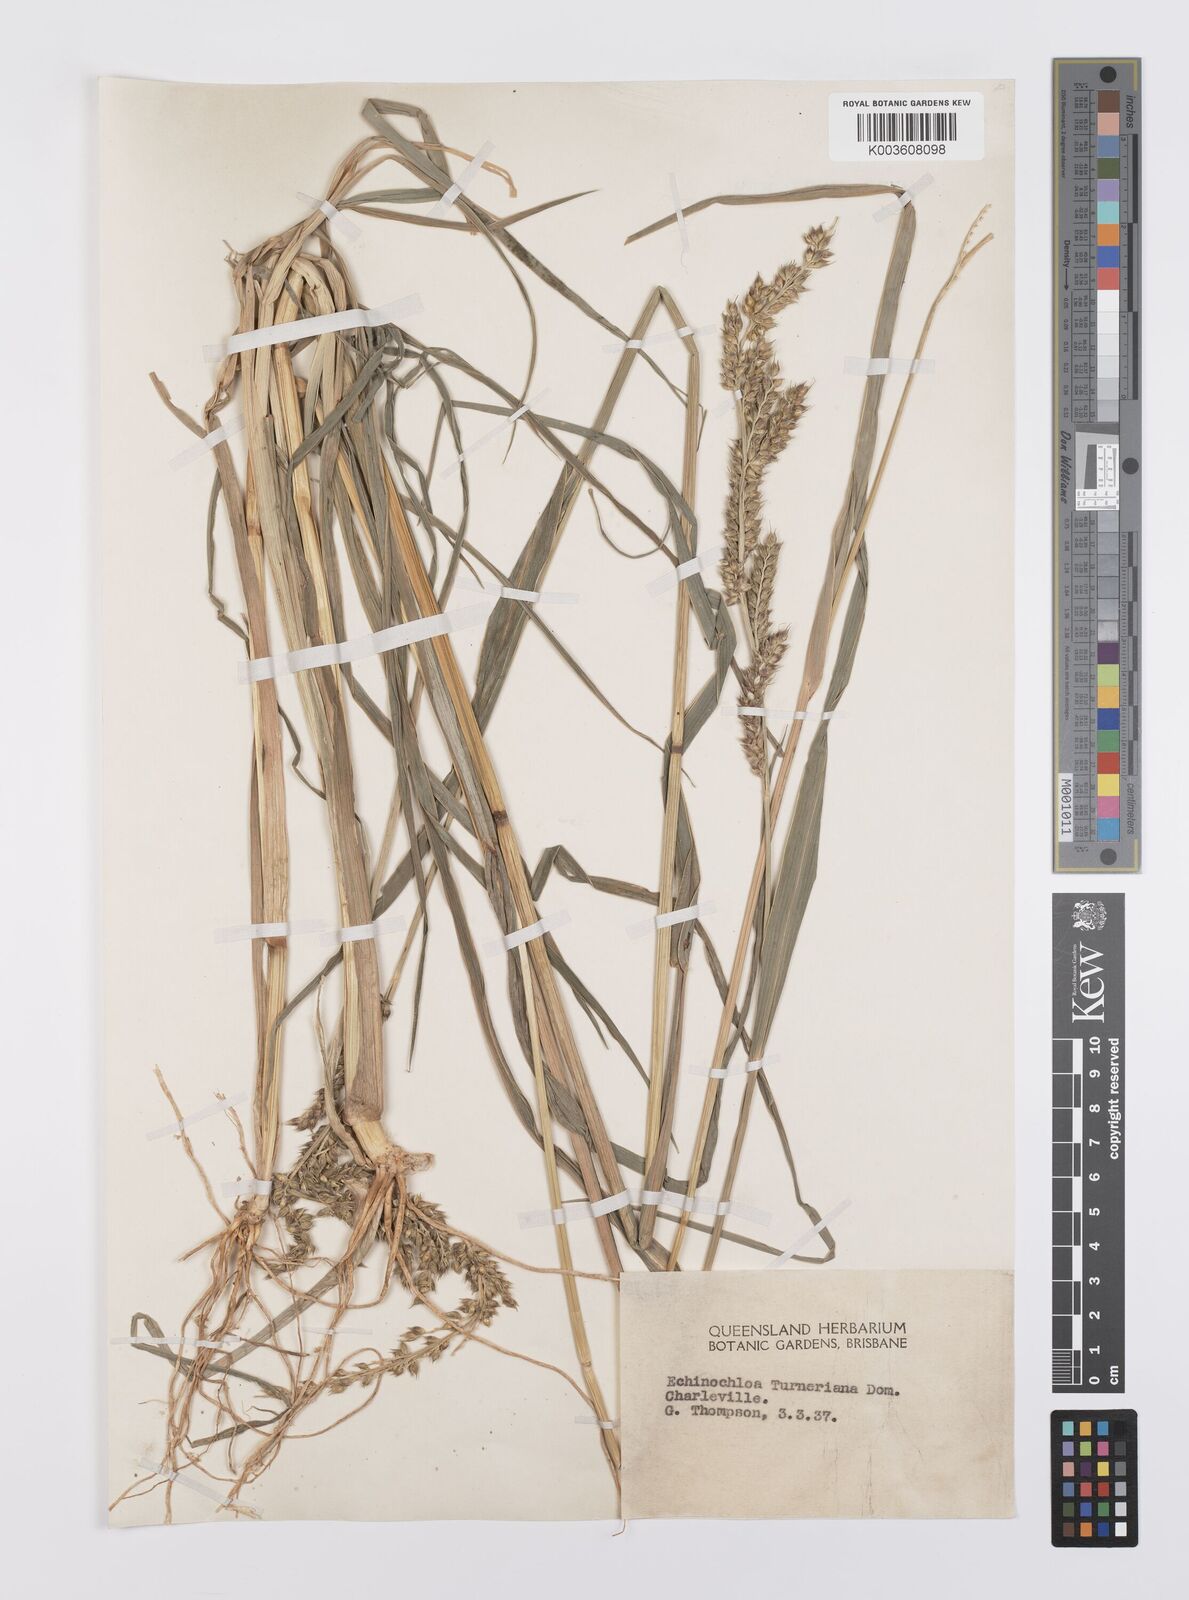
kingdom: Plantae
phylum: Tracheophyta
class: Liliopsida
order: Poales
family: Poaceae
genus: Echinochloa
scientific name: Echinochloa turneriana
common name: Channel millet
